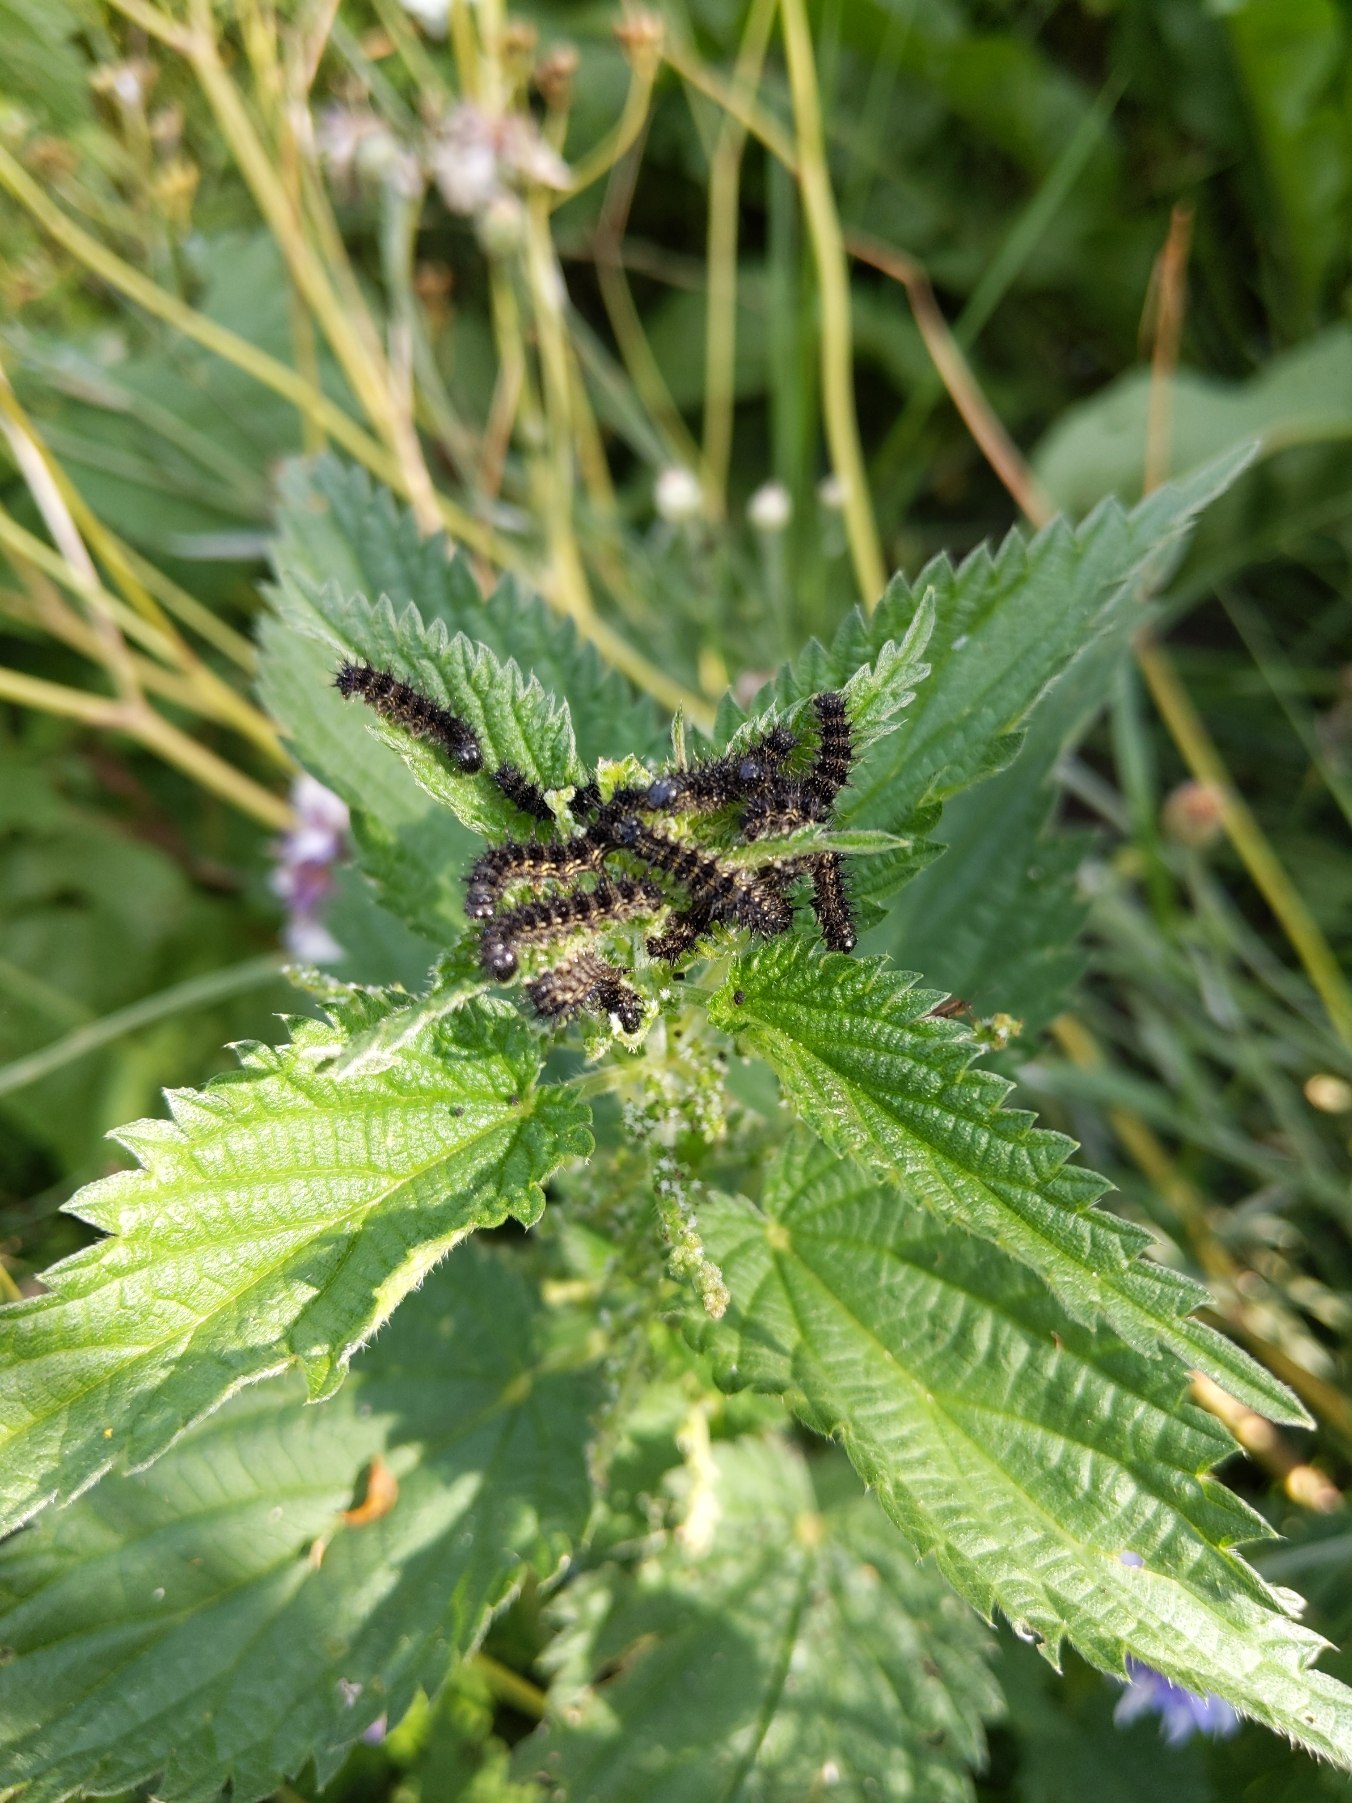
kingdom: Animalia
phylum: Arthropoda
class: Insecta
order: Lepidoptera
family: Nymphalidae
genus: Aglais
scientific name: Aglais urticae
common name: Nældens takvinge
